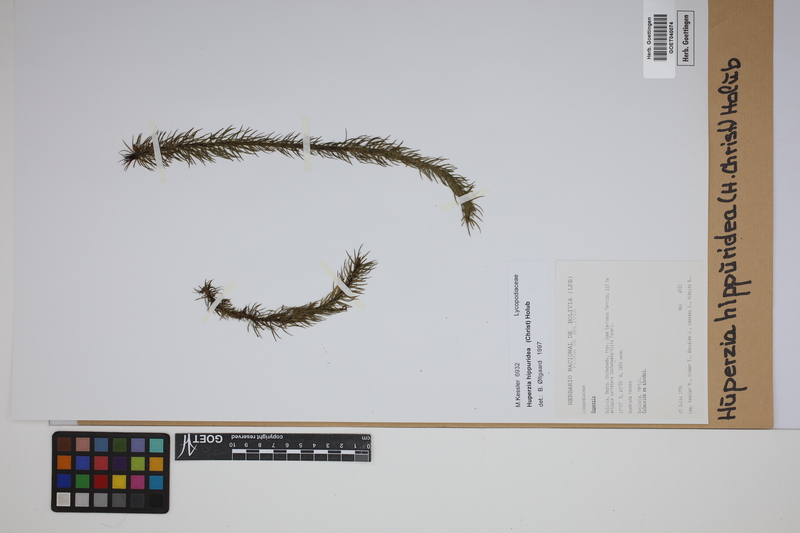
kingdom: Plantae
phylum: Tracheophyta
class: Lycopodiopsida
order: Lycopodiales
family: Lycopodiaceae
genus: Phlegmariurus
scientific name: Phlegmariurus hippurideus
